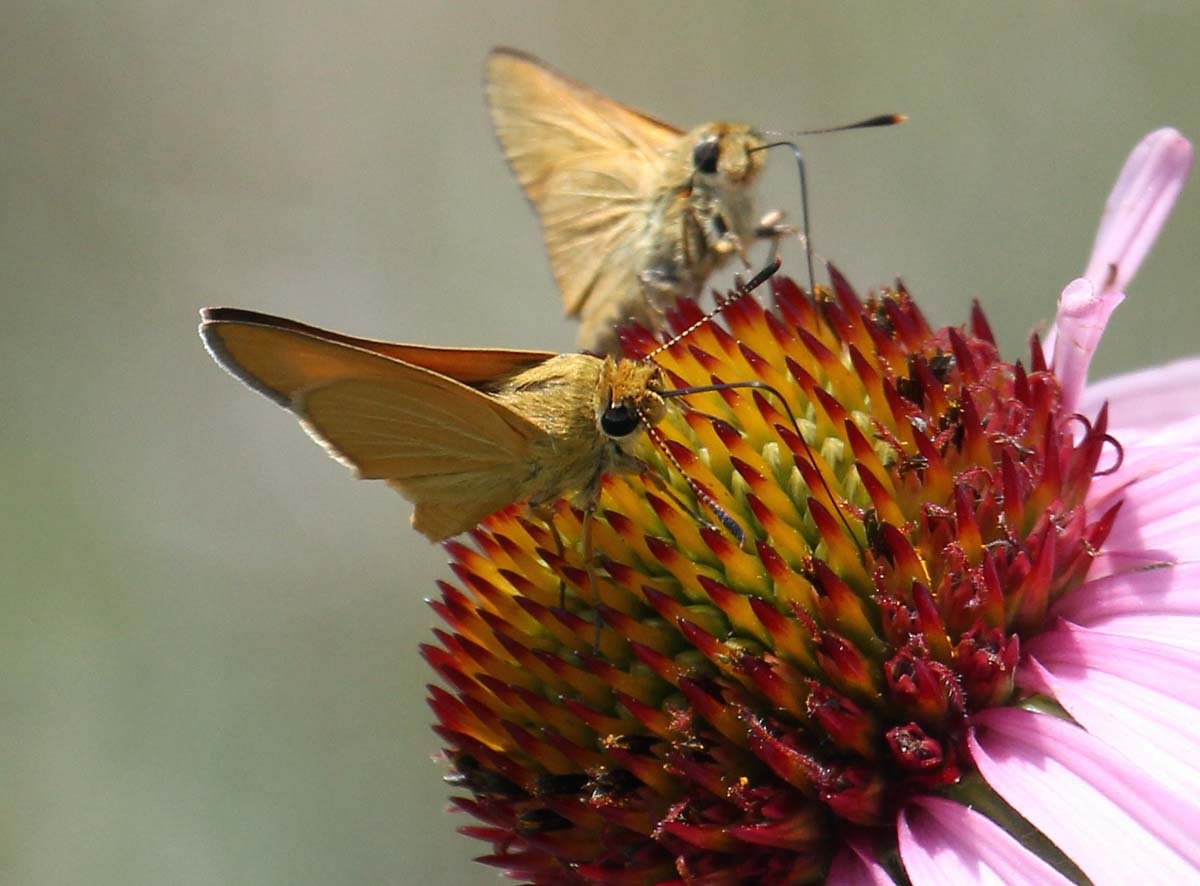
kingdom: Animalia
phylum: Arthropoda
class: Insecta
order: Lepidoptera
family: Hesperiidae
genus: Atrytone
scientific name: Atrytone arogos
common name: Arogos Skipper
